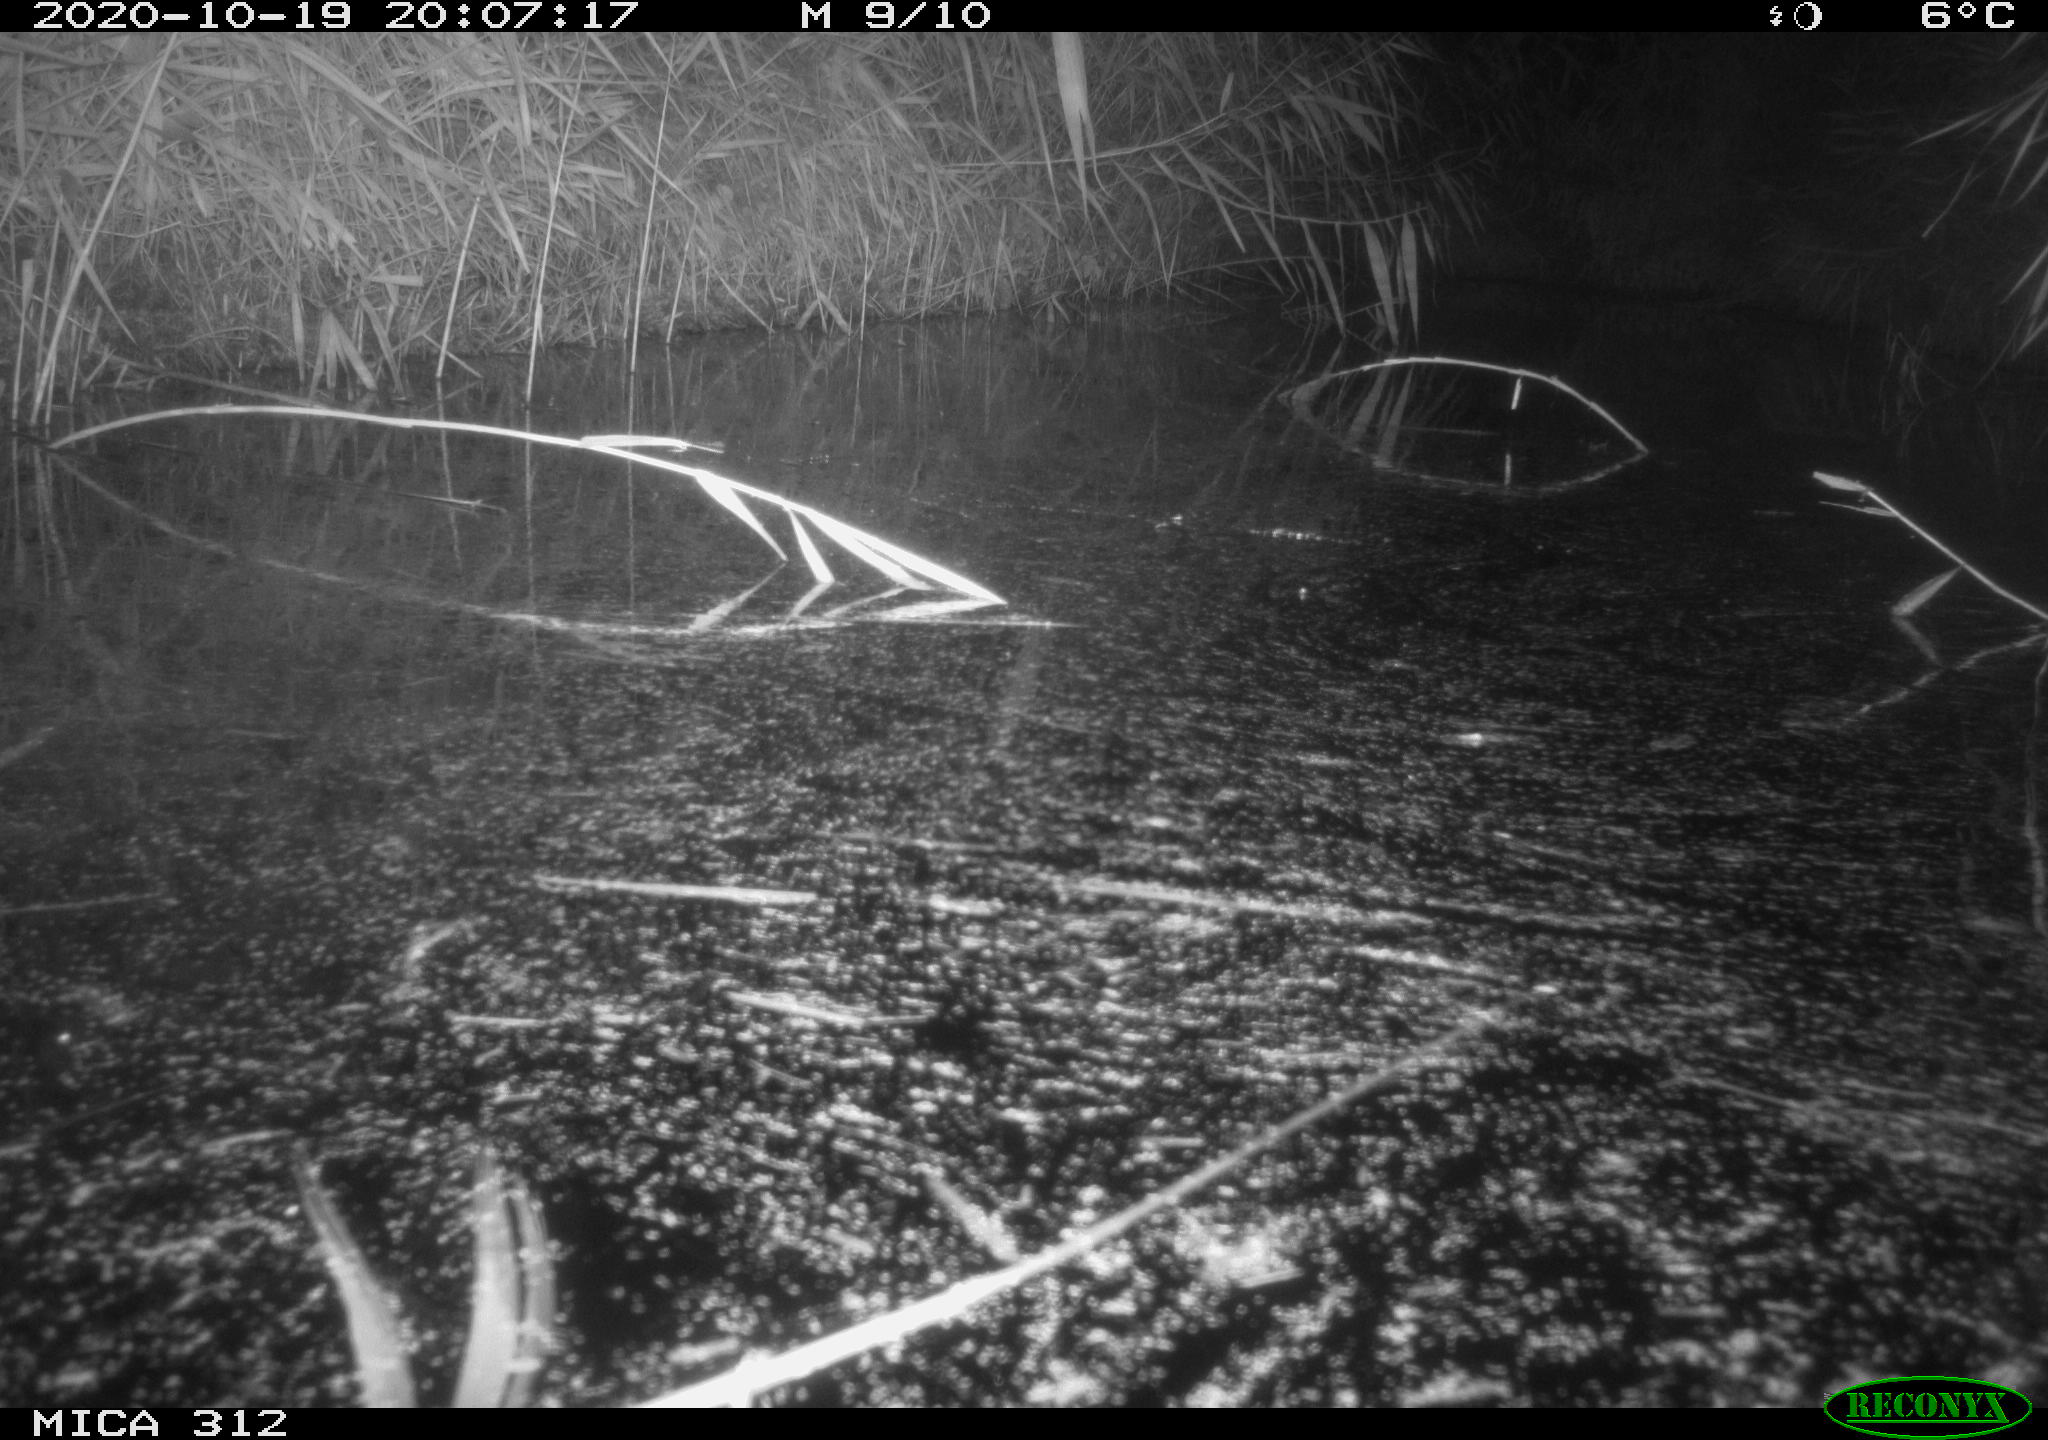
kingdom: Animalia
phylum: Chordata
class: Mammalia
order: Rodentia
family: Muridae
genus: Rattus
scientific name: Rattus norvegicus
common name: Brown rat
